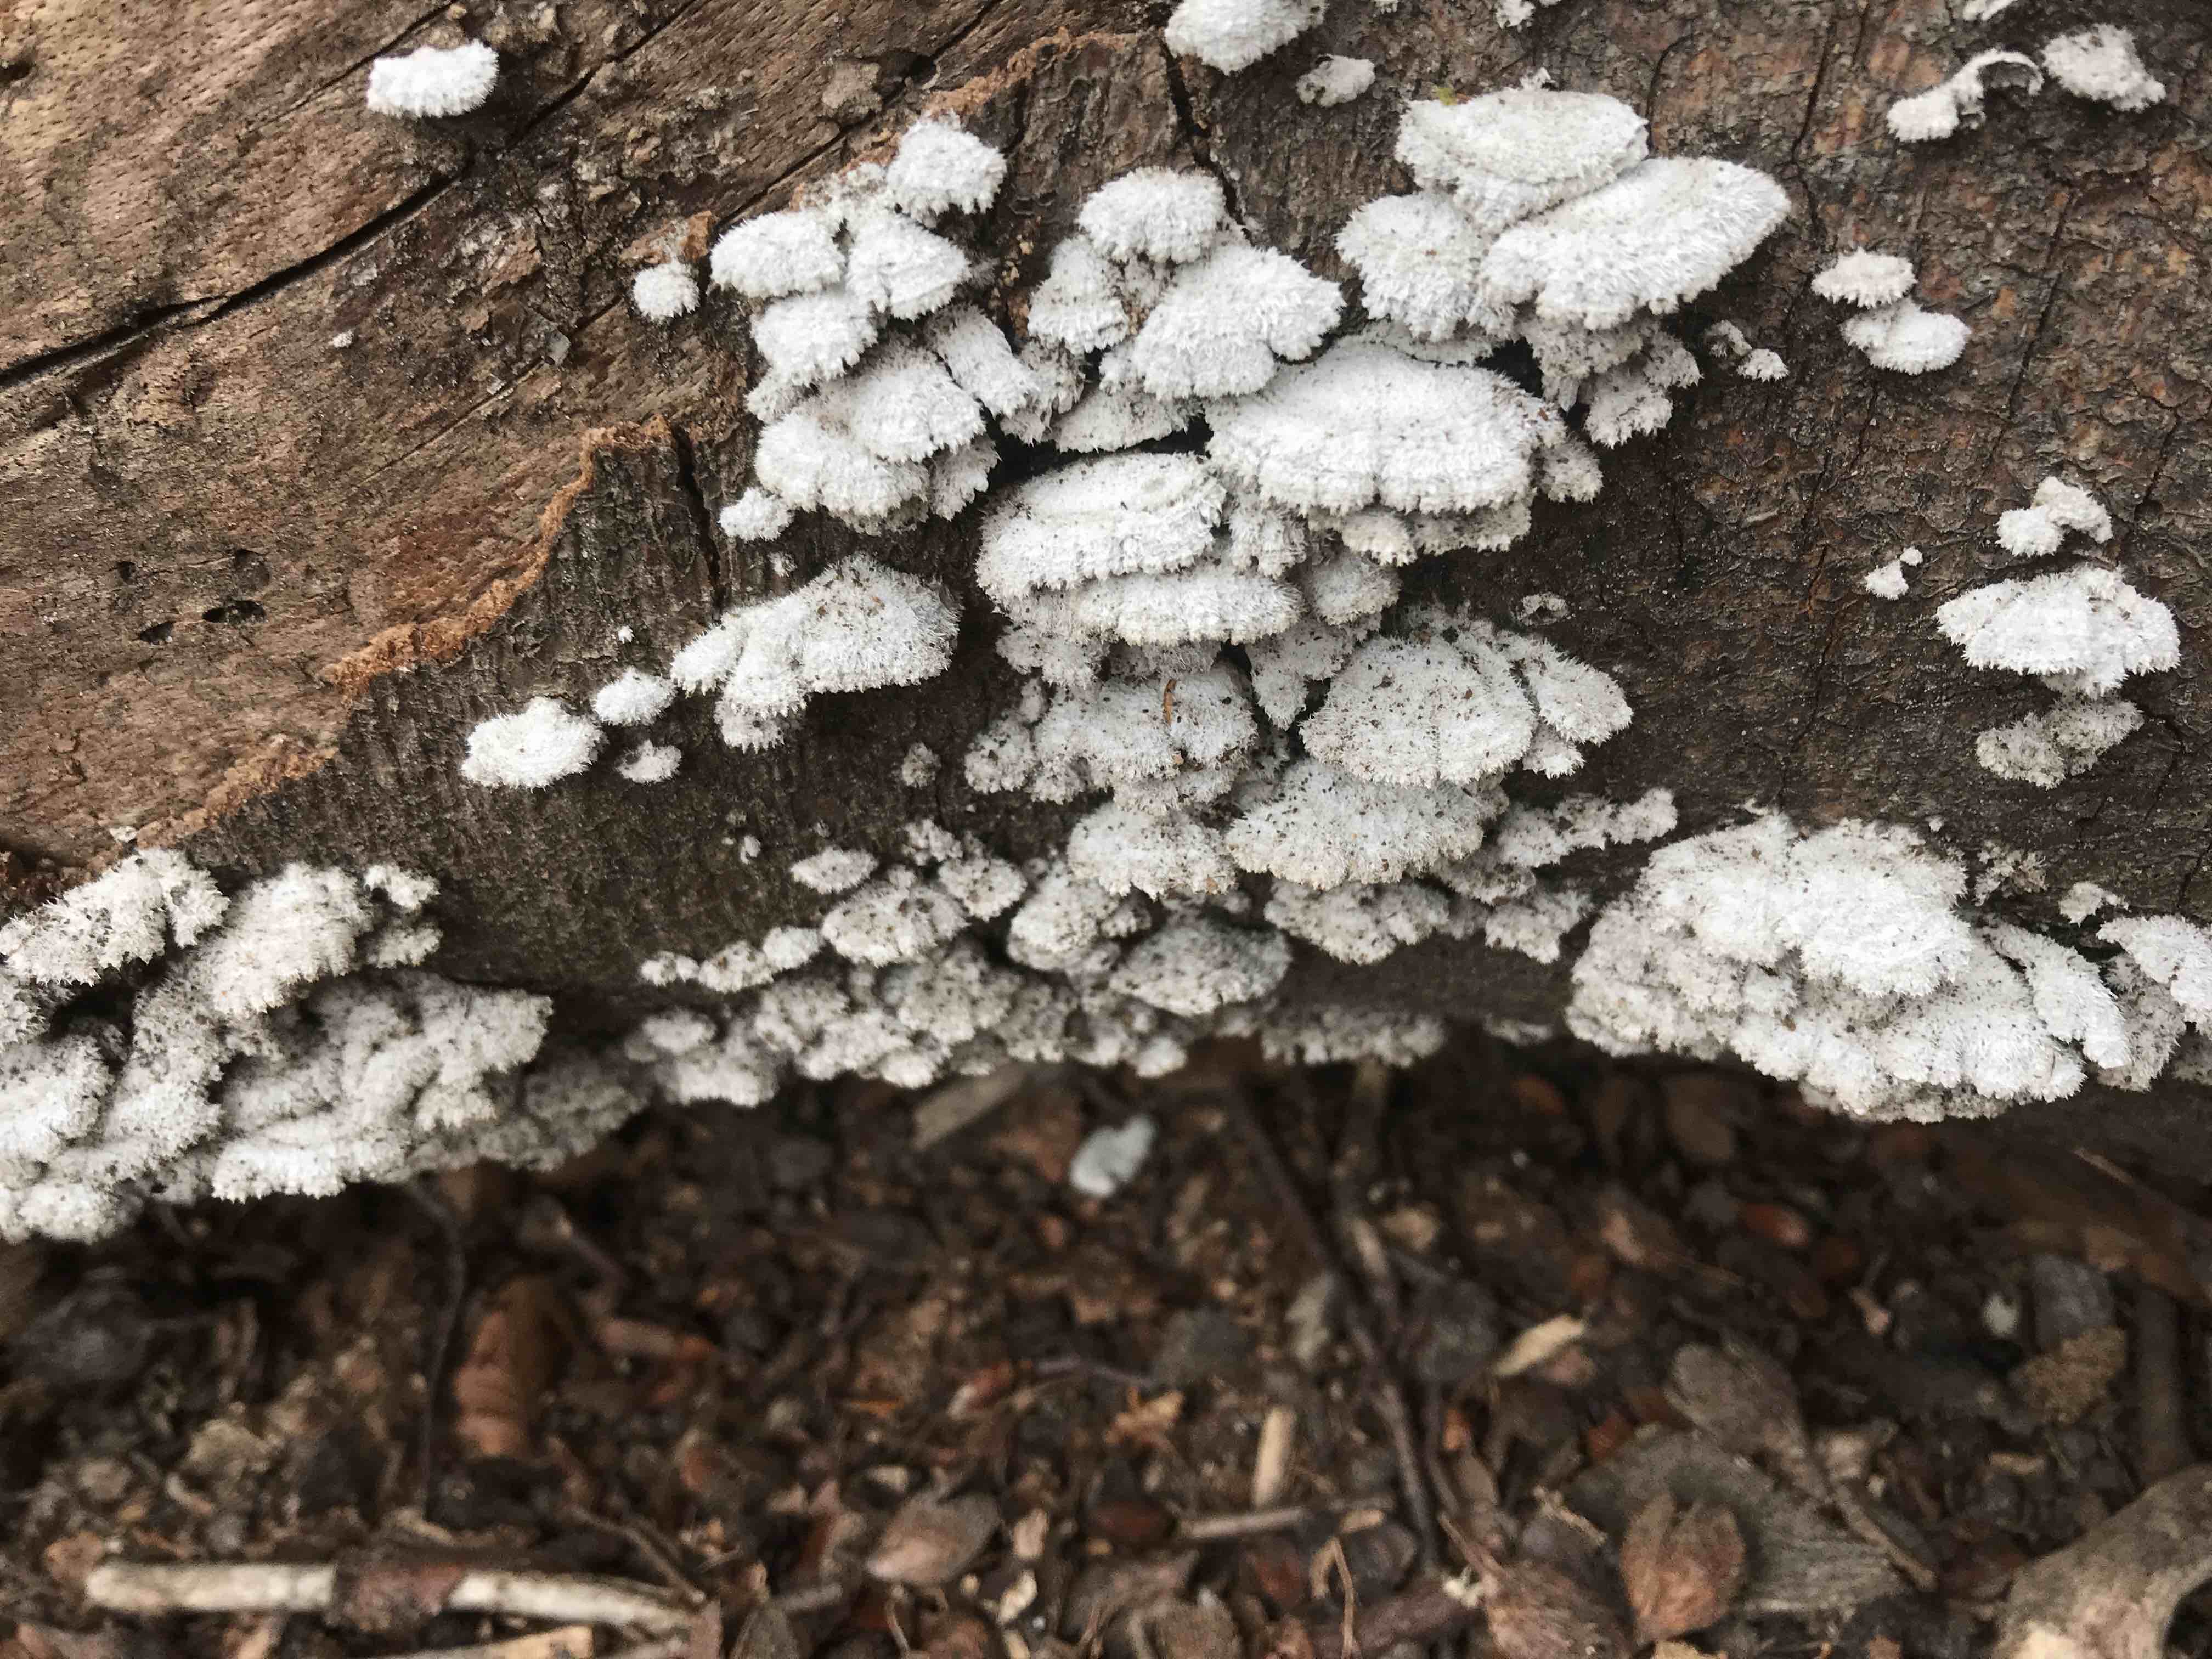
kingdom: Fungi
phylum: Basidiomycota
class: Agaricomycetes
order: Agaricales
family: Schizophyllaceae
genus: Schizophyllum
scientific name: Schizophyllum commune
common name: kløvblad
